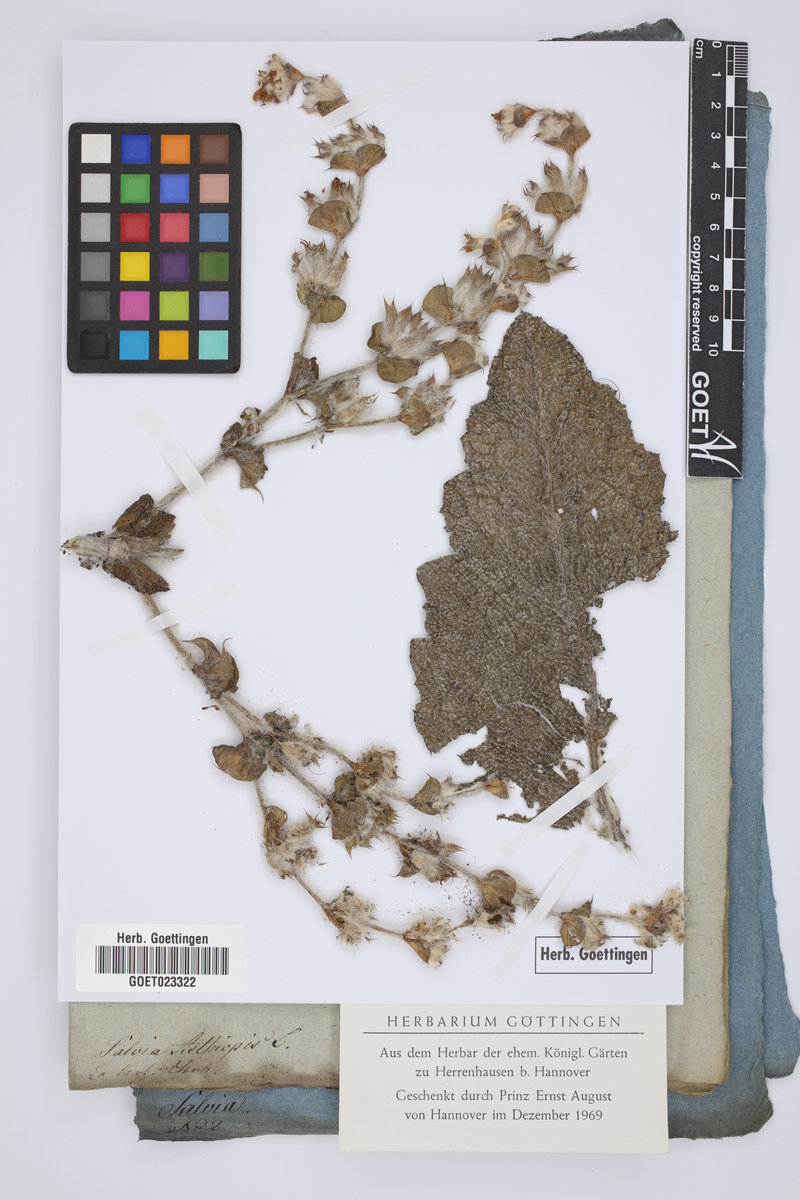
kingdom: Plantae
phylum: Tracheophyta
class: Magnoliopsida
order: Lamiales
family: Lamiaceae
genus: Salvia
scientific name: Salvia aethiopis
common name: Mediterranean sage
